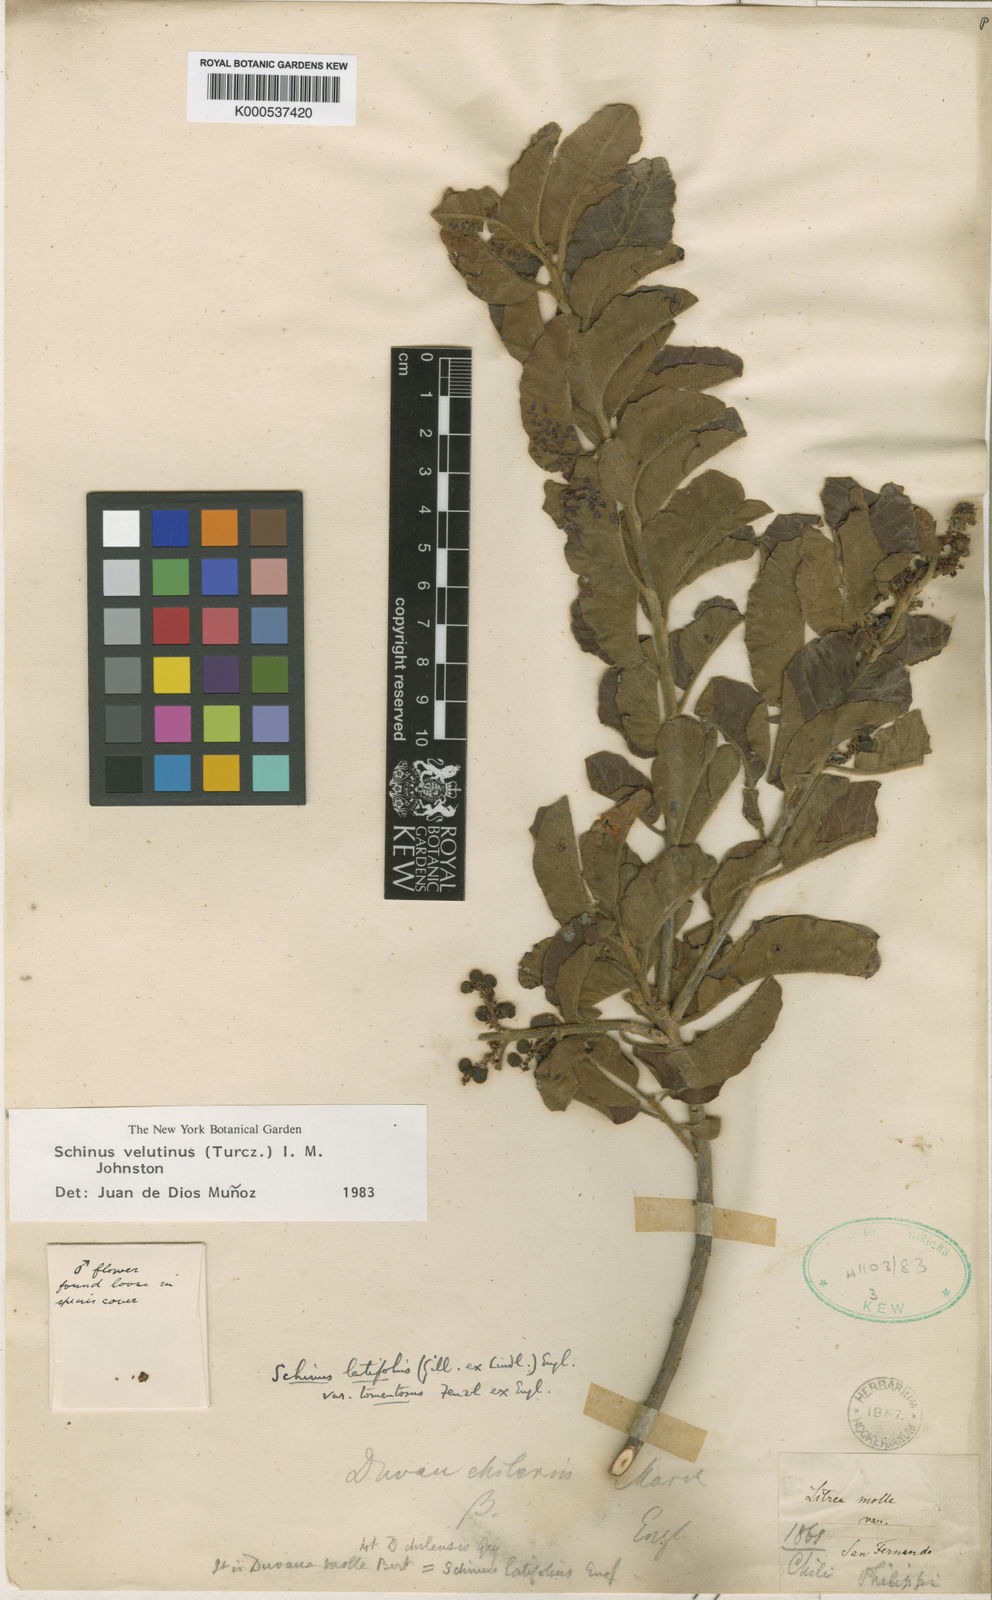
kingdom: Plantae
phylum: Tracheophyta
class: Magnoliopsida
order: Sapindales
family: Anacardiaceae
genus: Schinus
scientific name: Schinus latifolia
